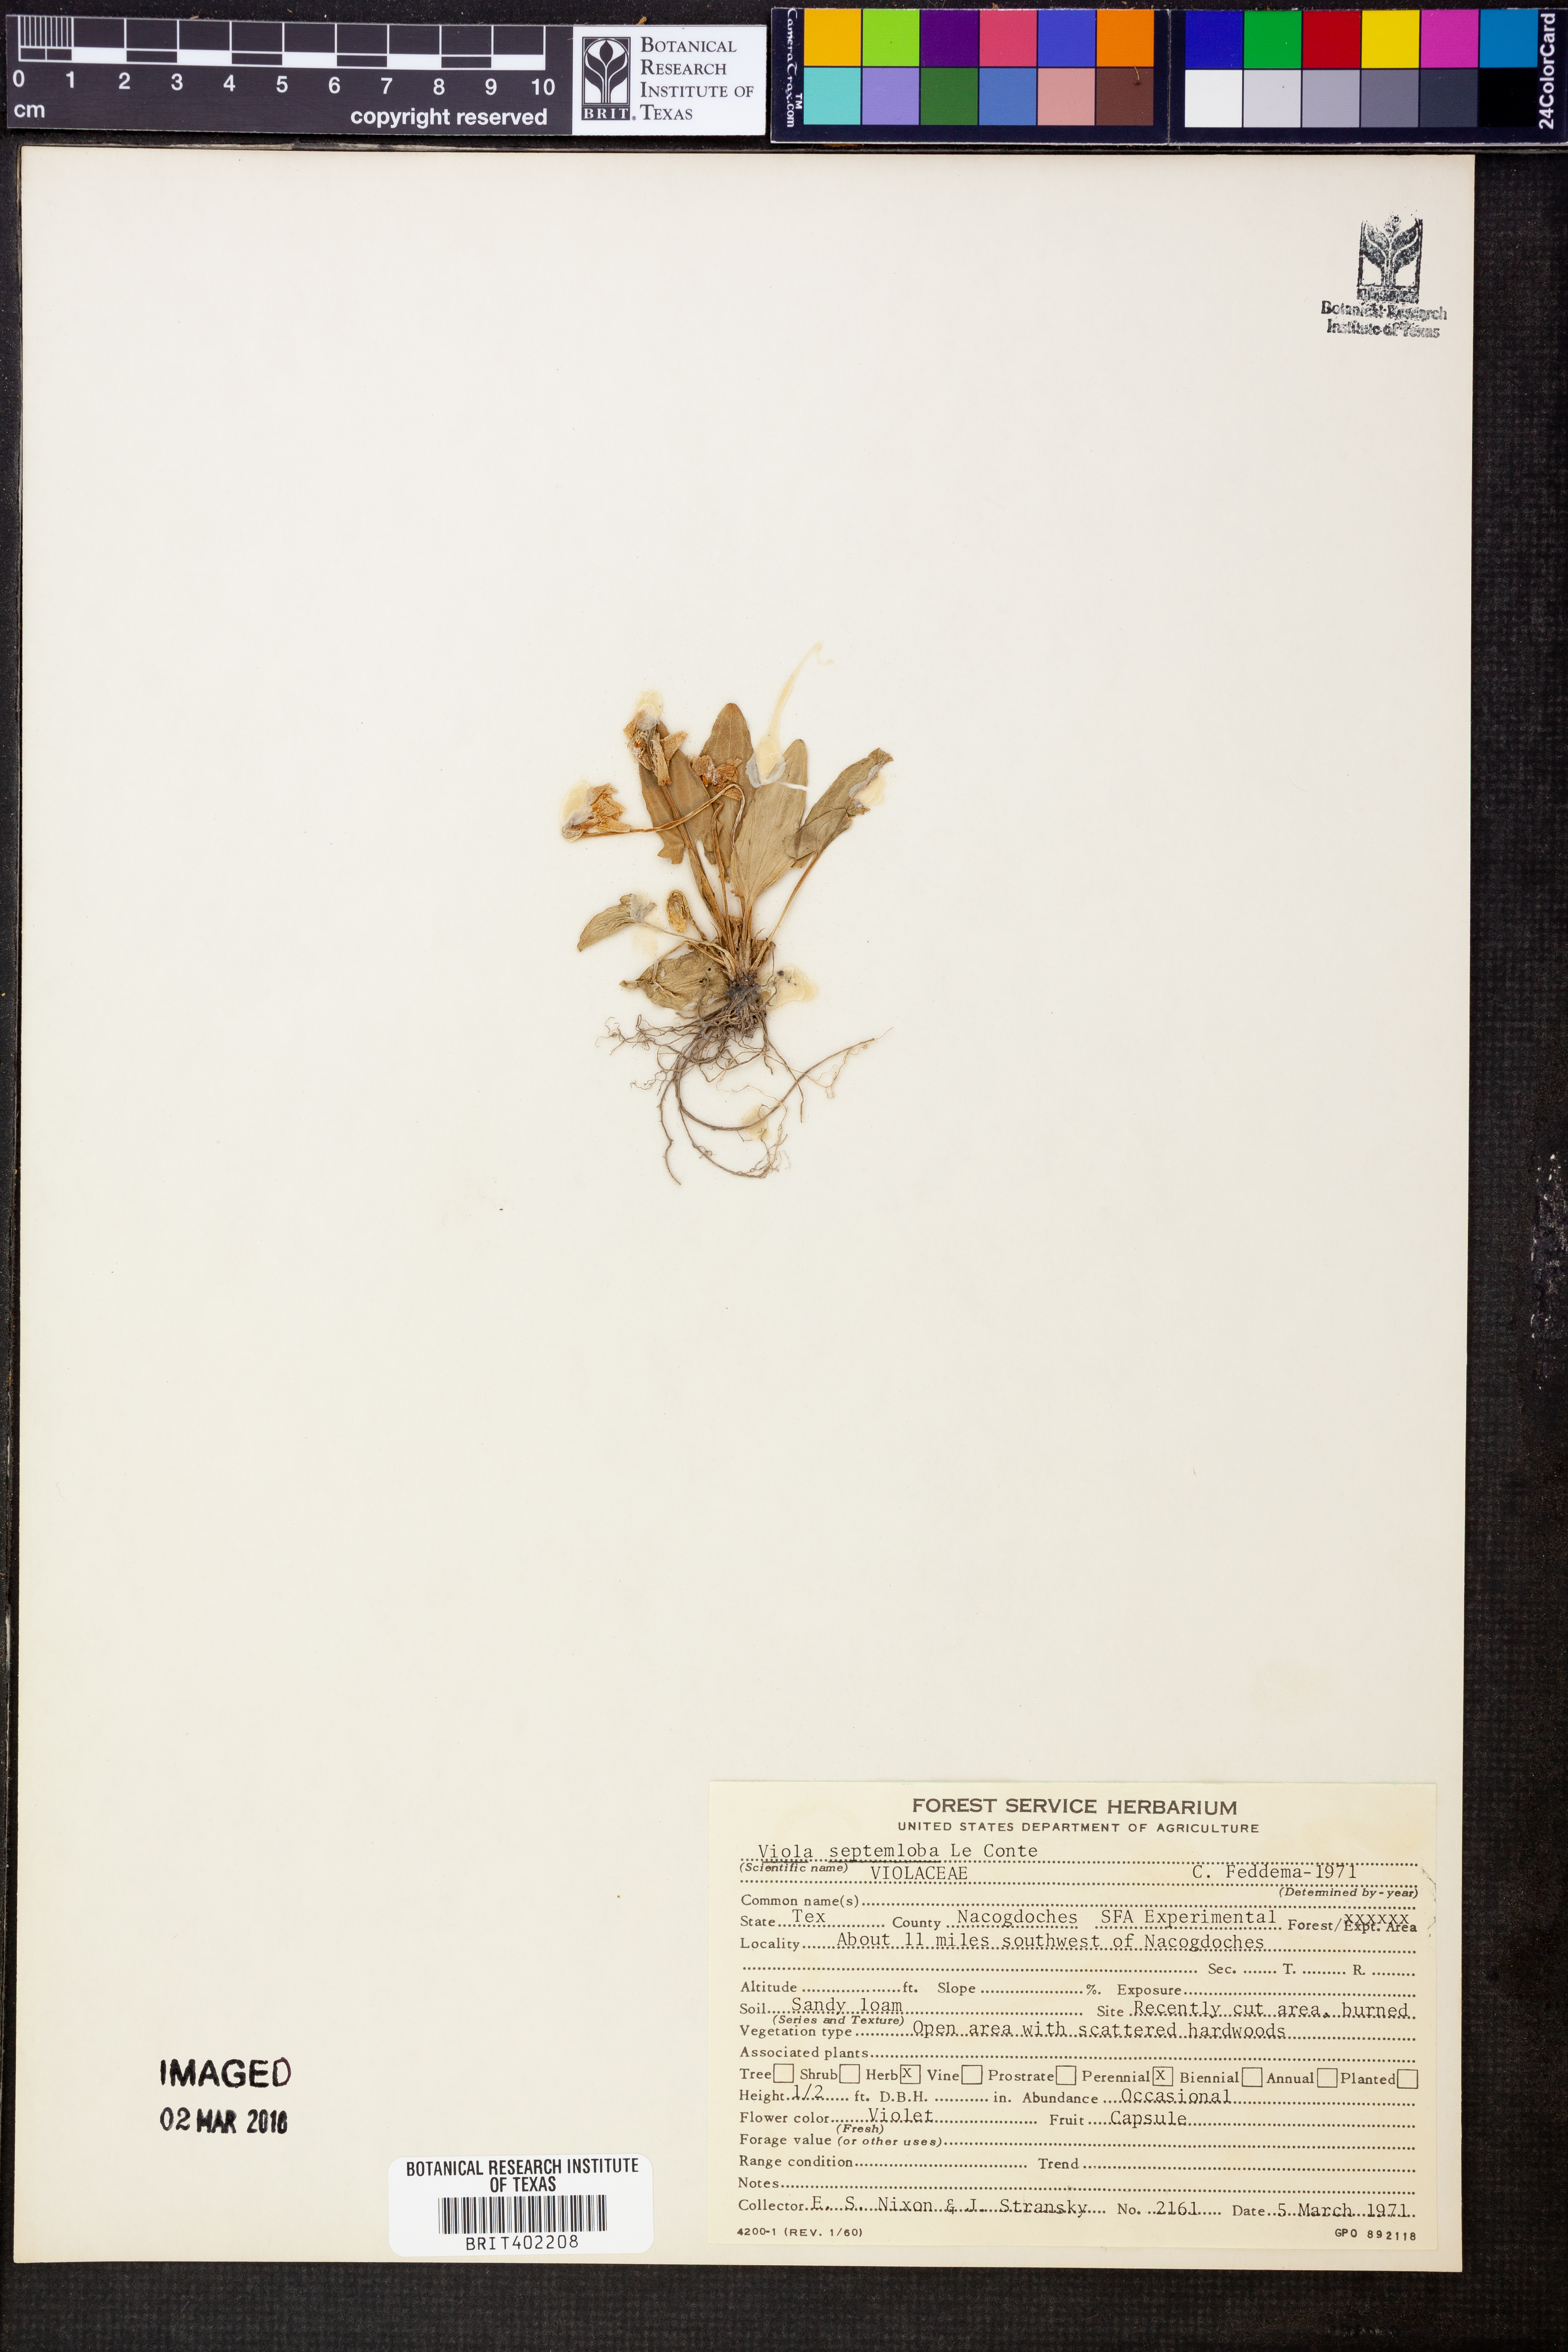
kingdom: Plantae
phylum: Tracheophyta
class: Magnoliopsida
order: Malpighiales
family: Violaceae
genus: Viola
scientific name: Viola septemloba
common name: Southern coast violet
